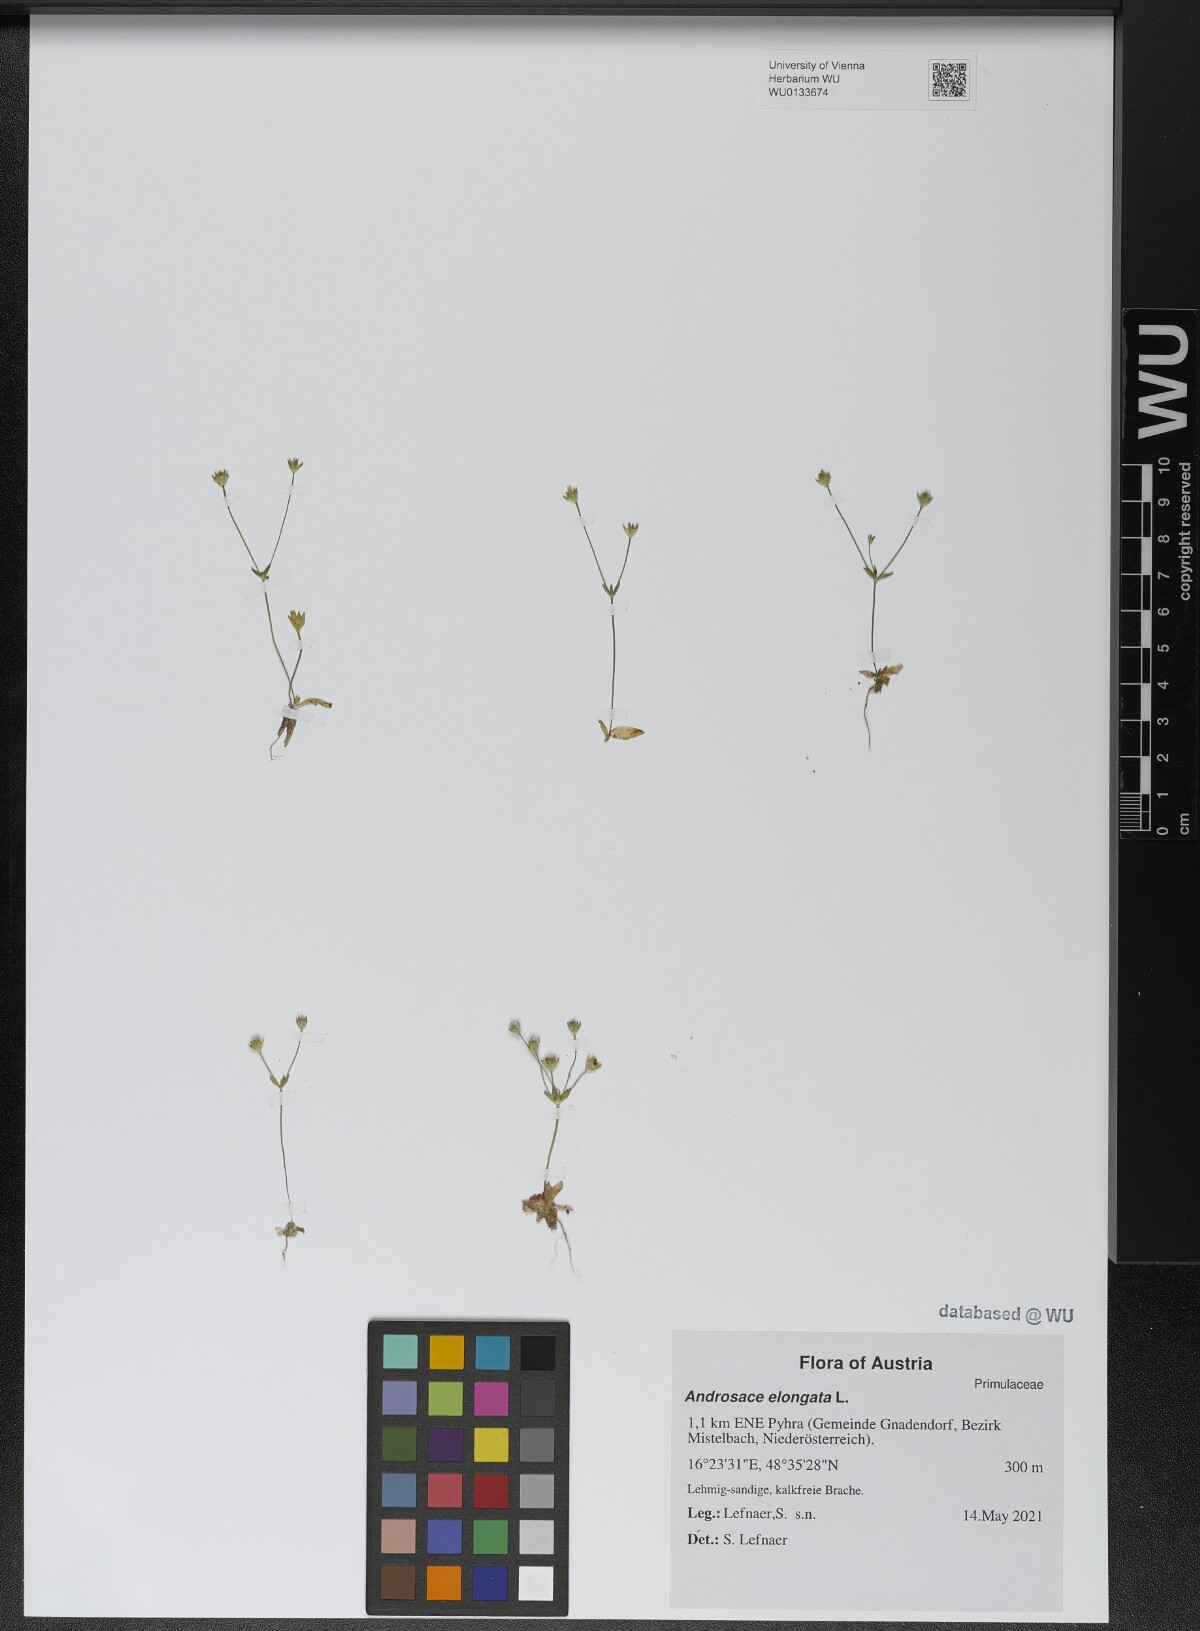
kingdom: Plantae
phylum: Tracheophyta
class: Magnoliopsida
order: Ericales
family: Primulaceae
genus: Androsace
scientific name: Androsace elongata
